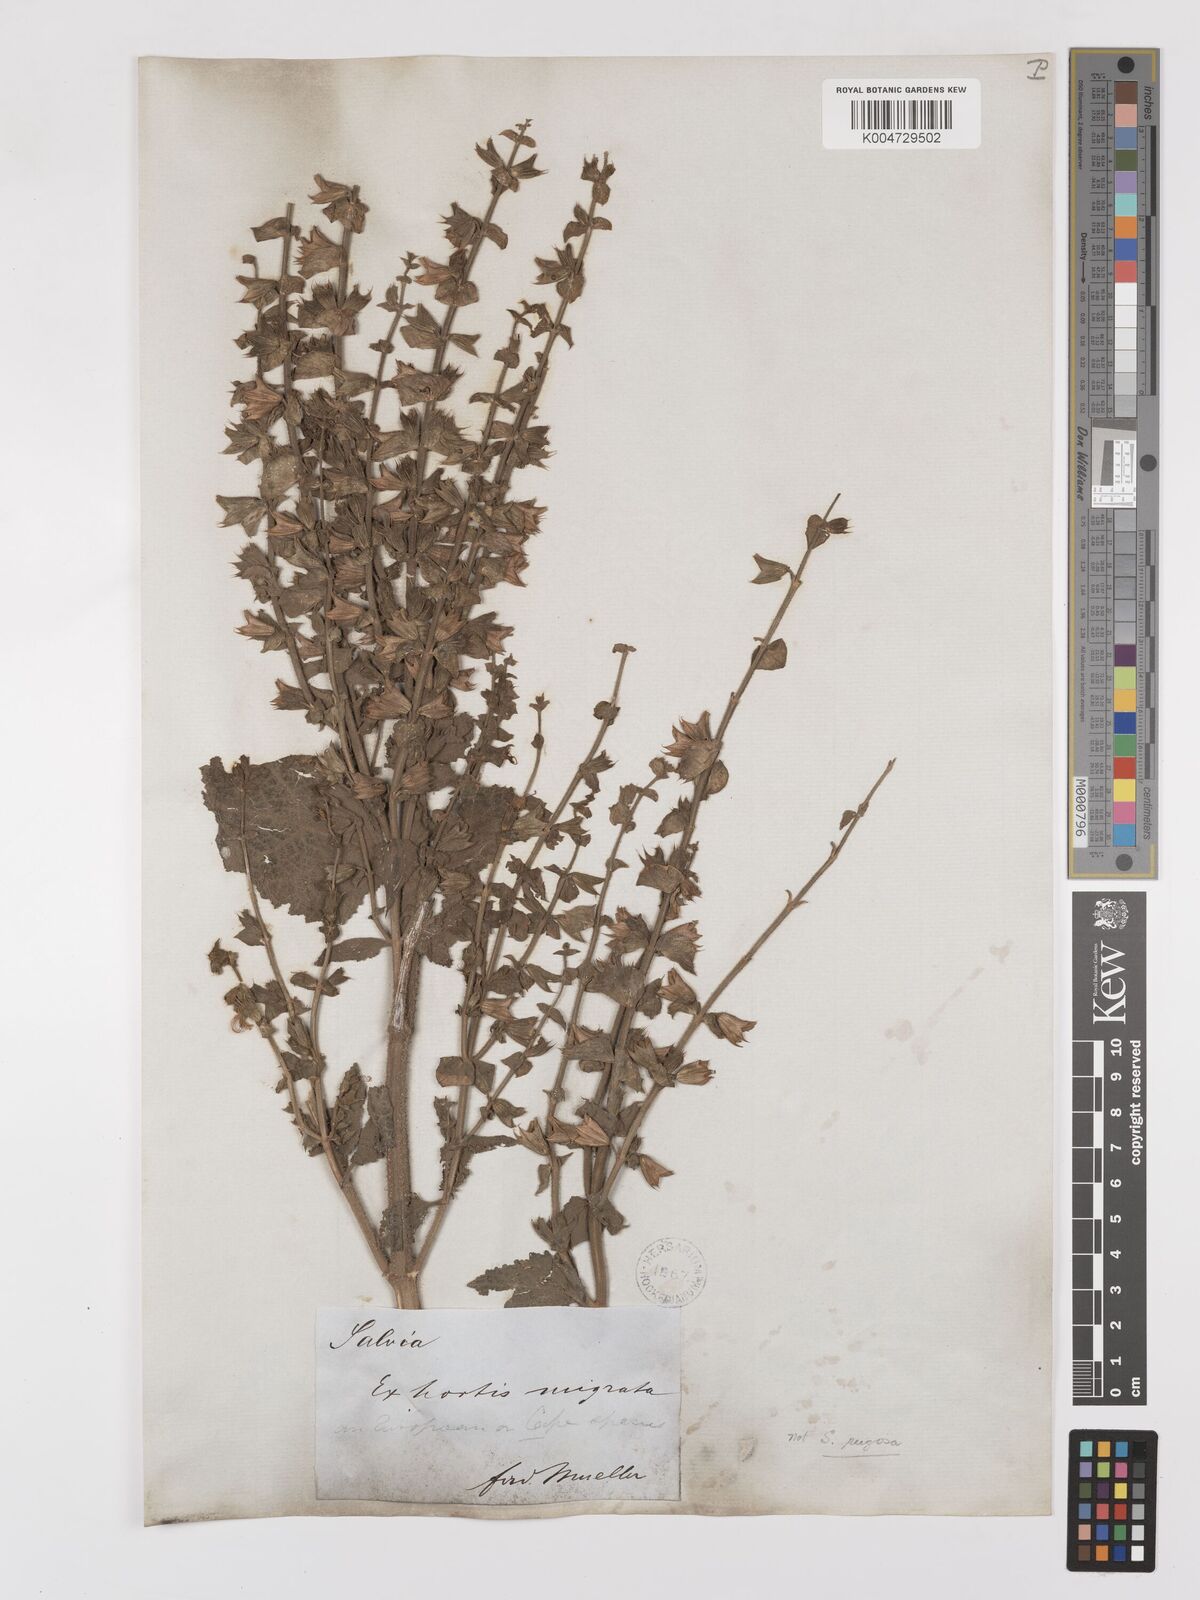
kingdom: Plantae
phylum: Tracheophyta
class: Magnoliopsida
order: Lamiales
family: Lamiaceae
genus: Salvia
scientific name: Salvia
